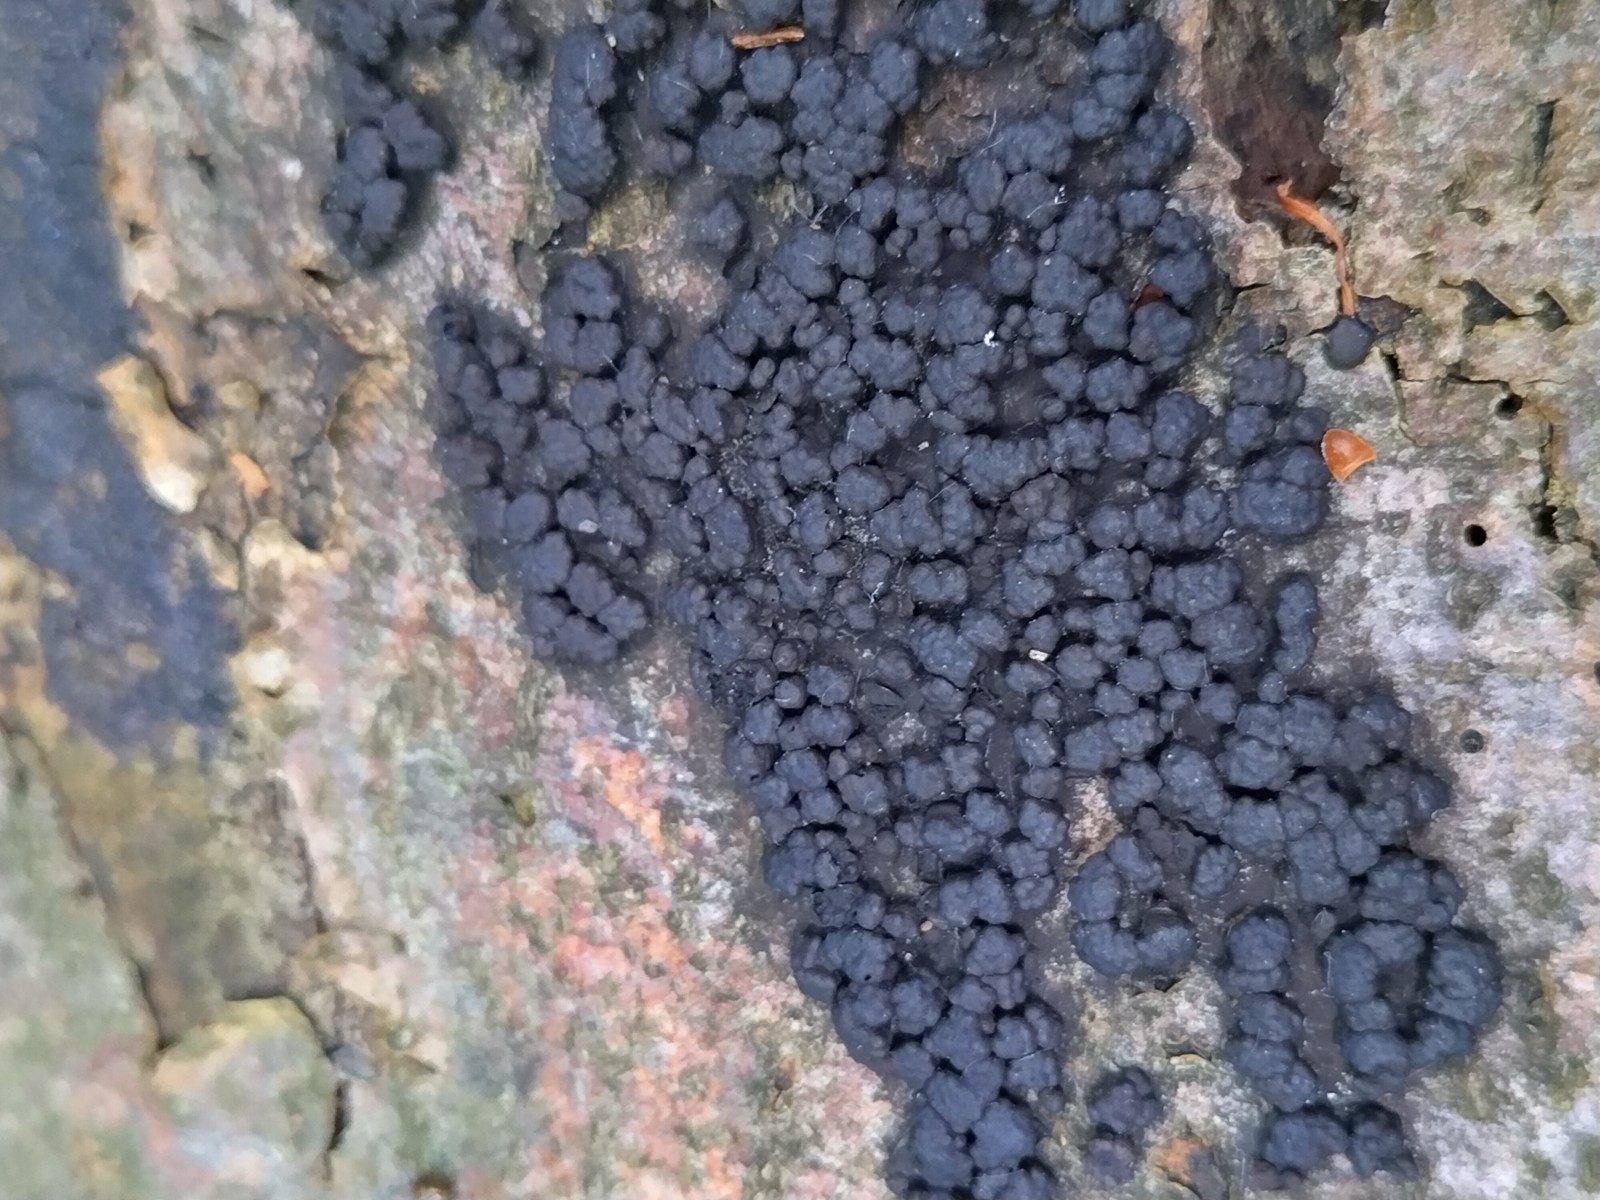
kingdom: Fungi
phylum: Ascomycota
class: Sordariomycetes
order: Xylariales
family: Hypoxylaceae
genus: Jackrogersella
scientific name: Jackrogersella cohaerens
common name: sammenflydende kulbær
